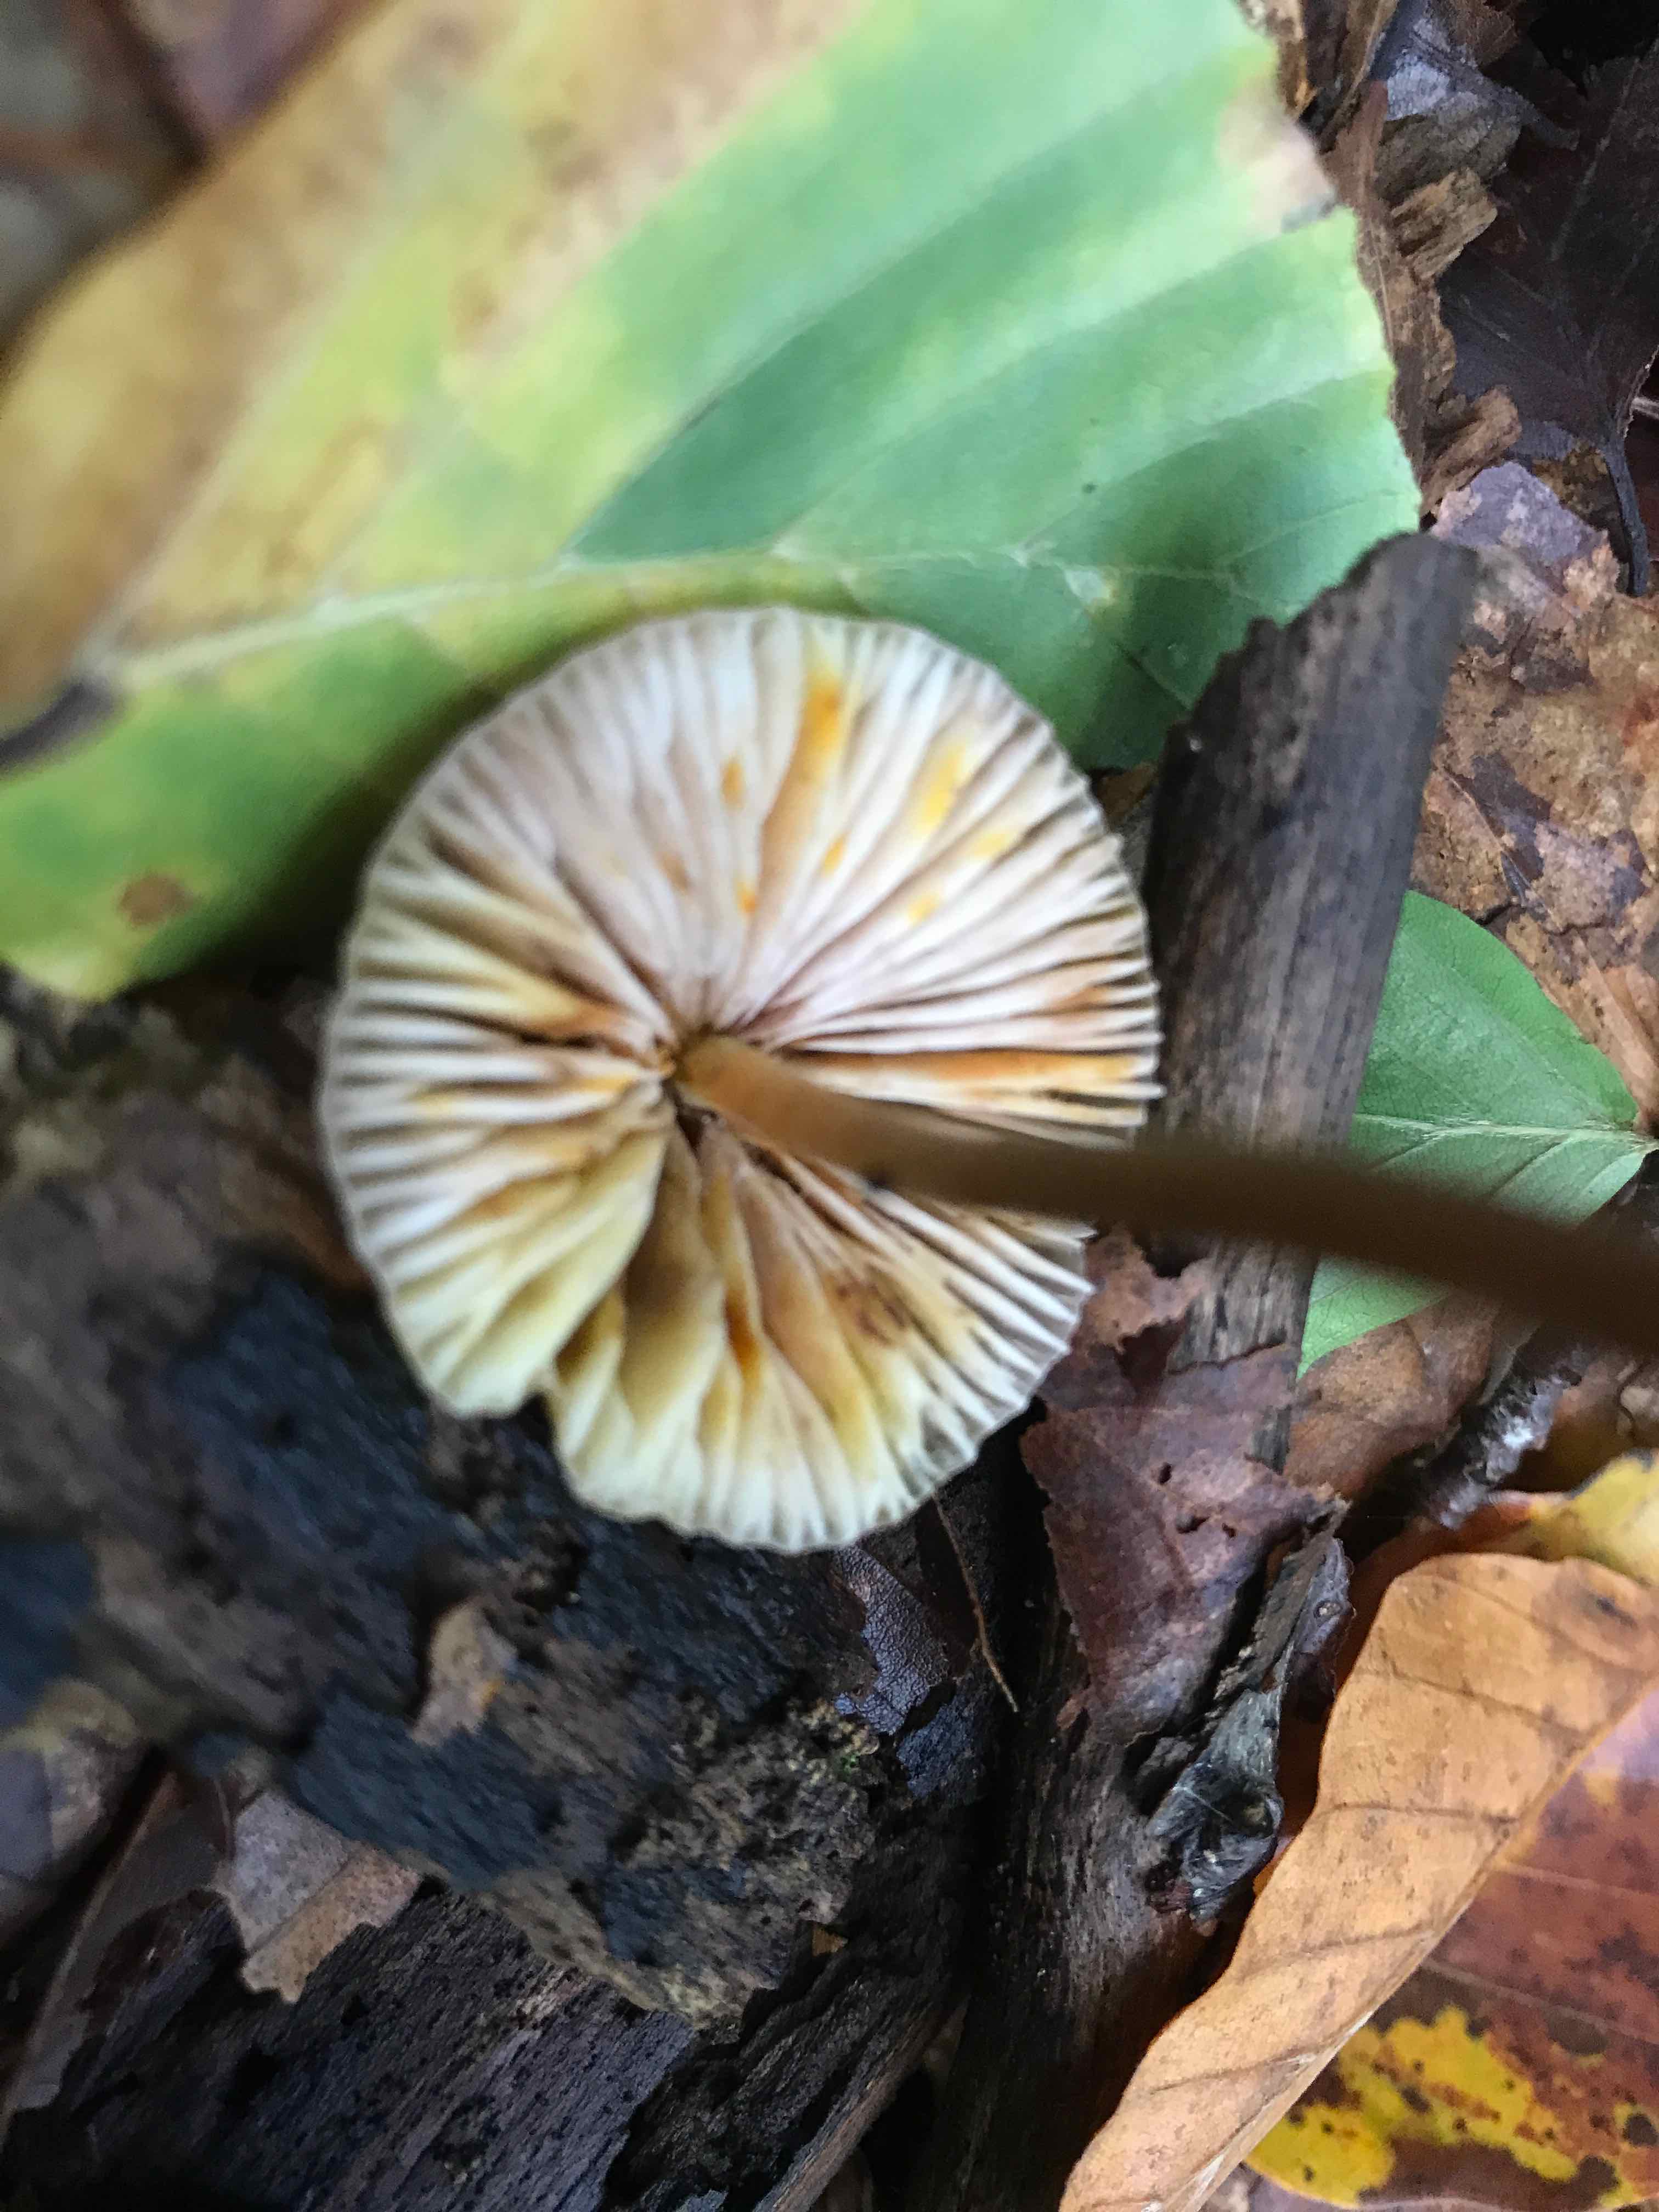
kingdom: Fungi
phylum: Basidiomycota
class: Agaricomycetes
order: Agaricales
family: Mycenaceae
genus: Mycena
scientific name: Mycena crocata
